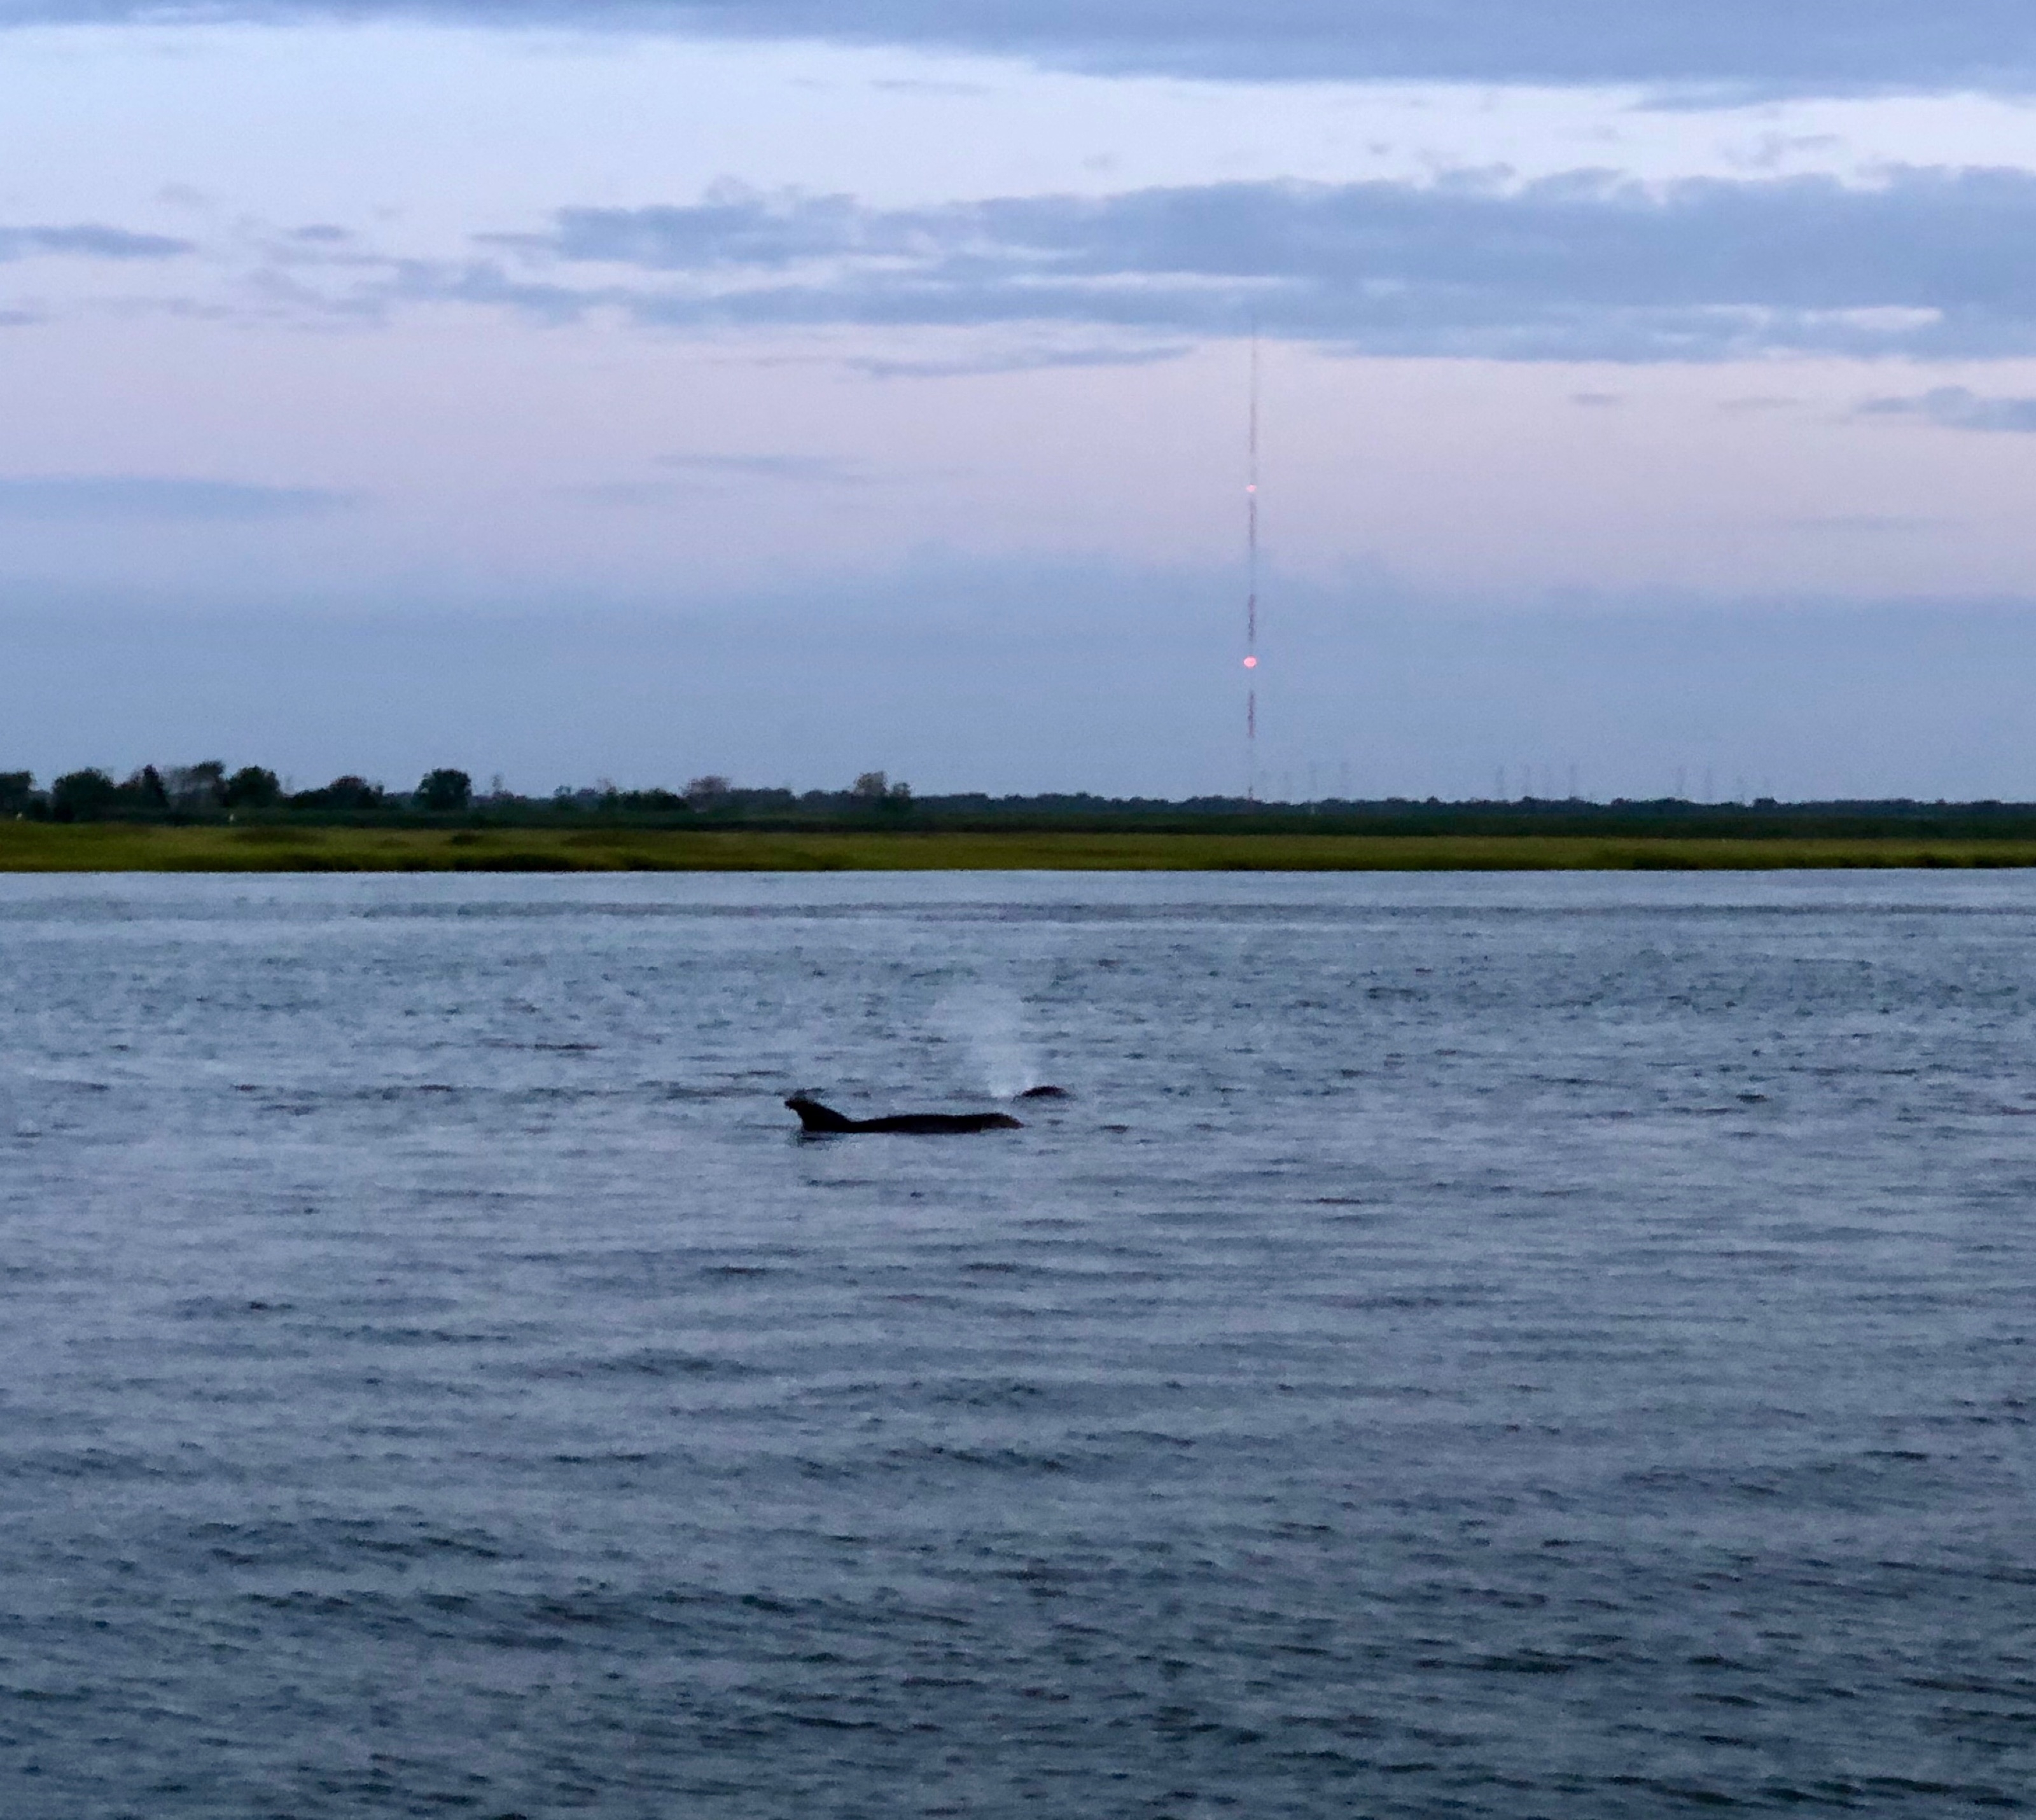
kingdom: Animalia
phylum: Chordata
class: Mammalia
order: Cetacea
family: Delphinidae
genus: Tursiops
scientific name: Tursiops truncatus
